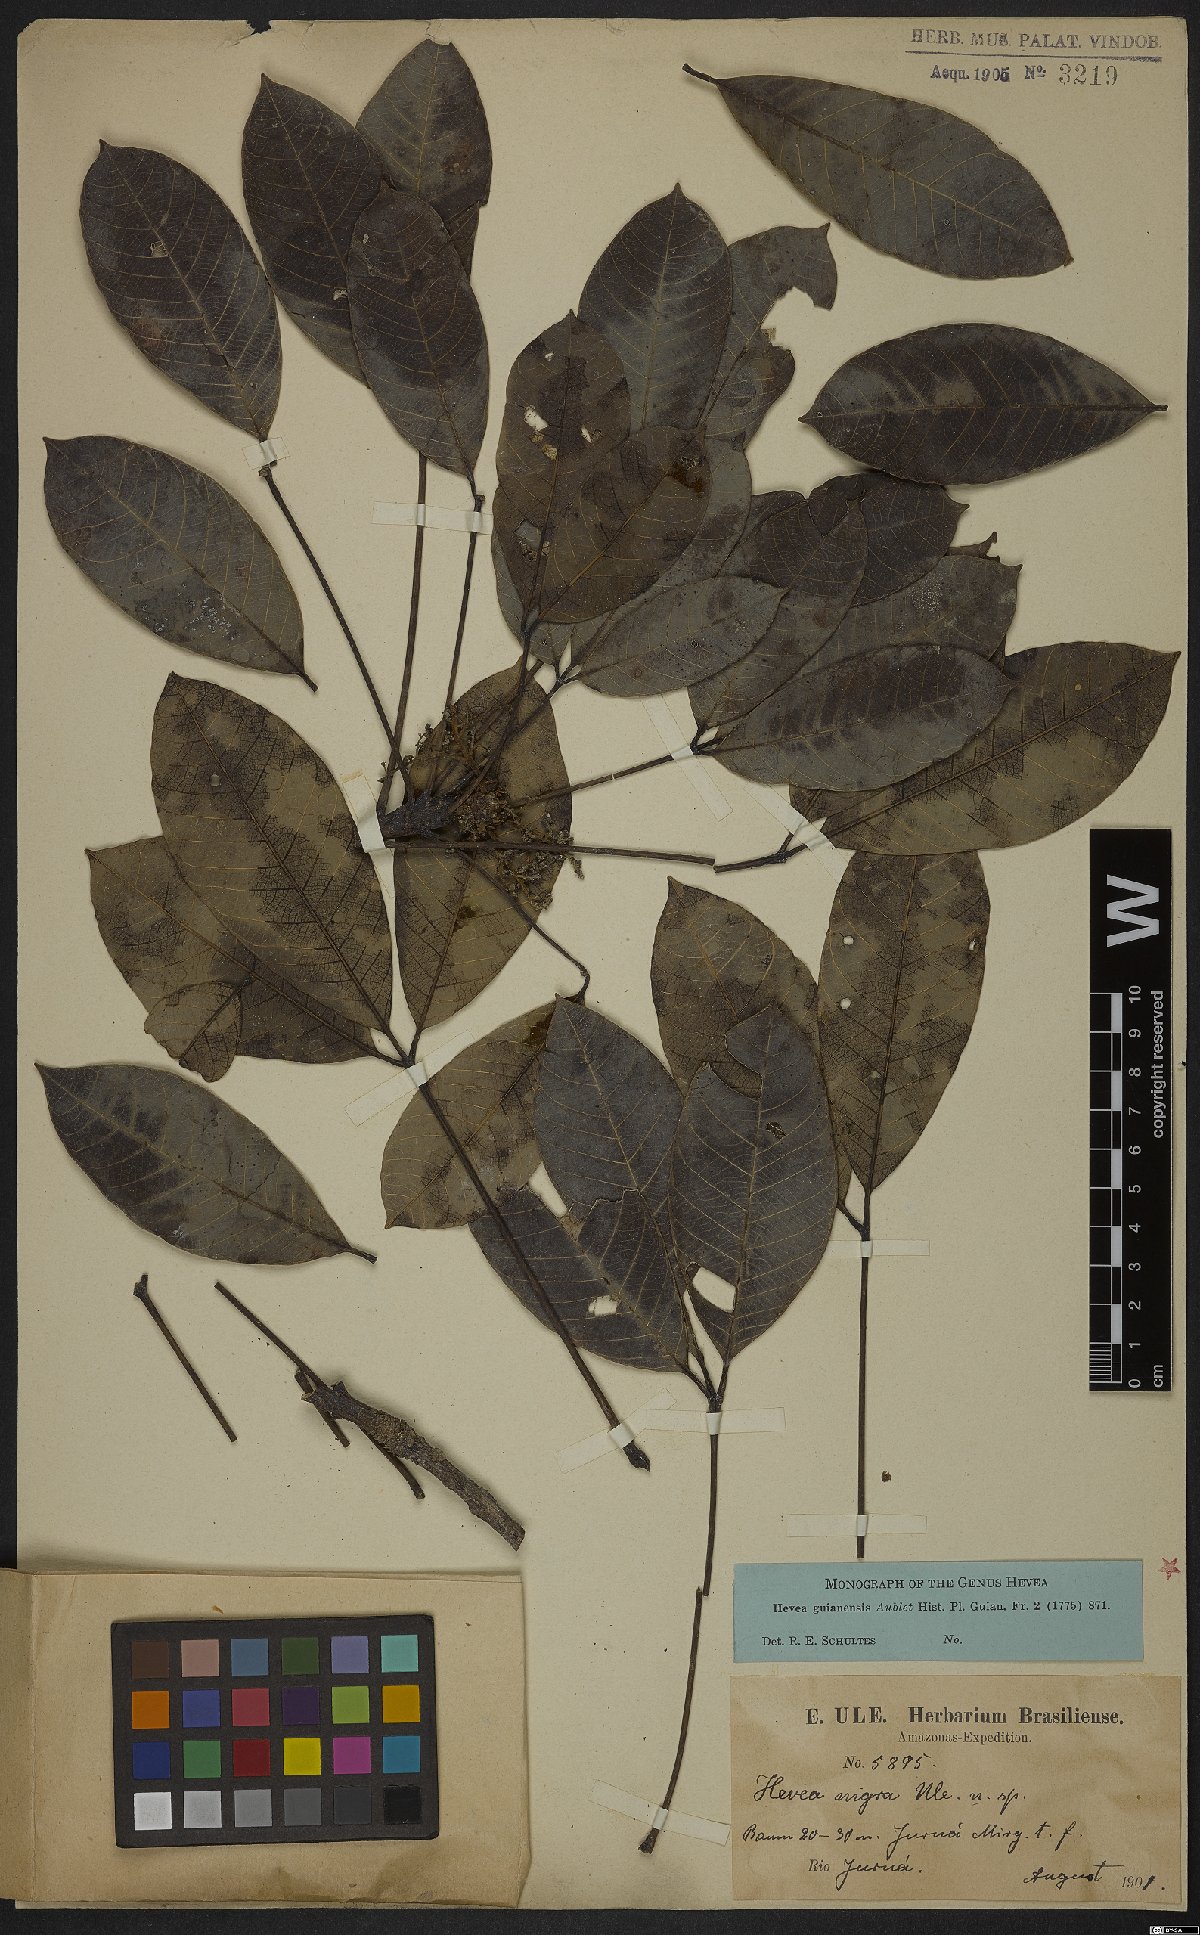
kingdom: Plantae
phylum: Tracheophyta
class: Magnoliopsida
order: Malpighiales
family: Euphorbiaceae
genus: Hevea
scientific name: Hevea guianensis
